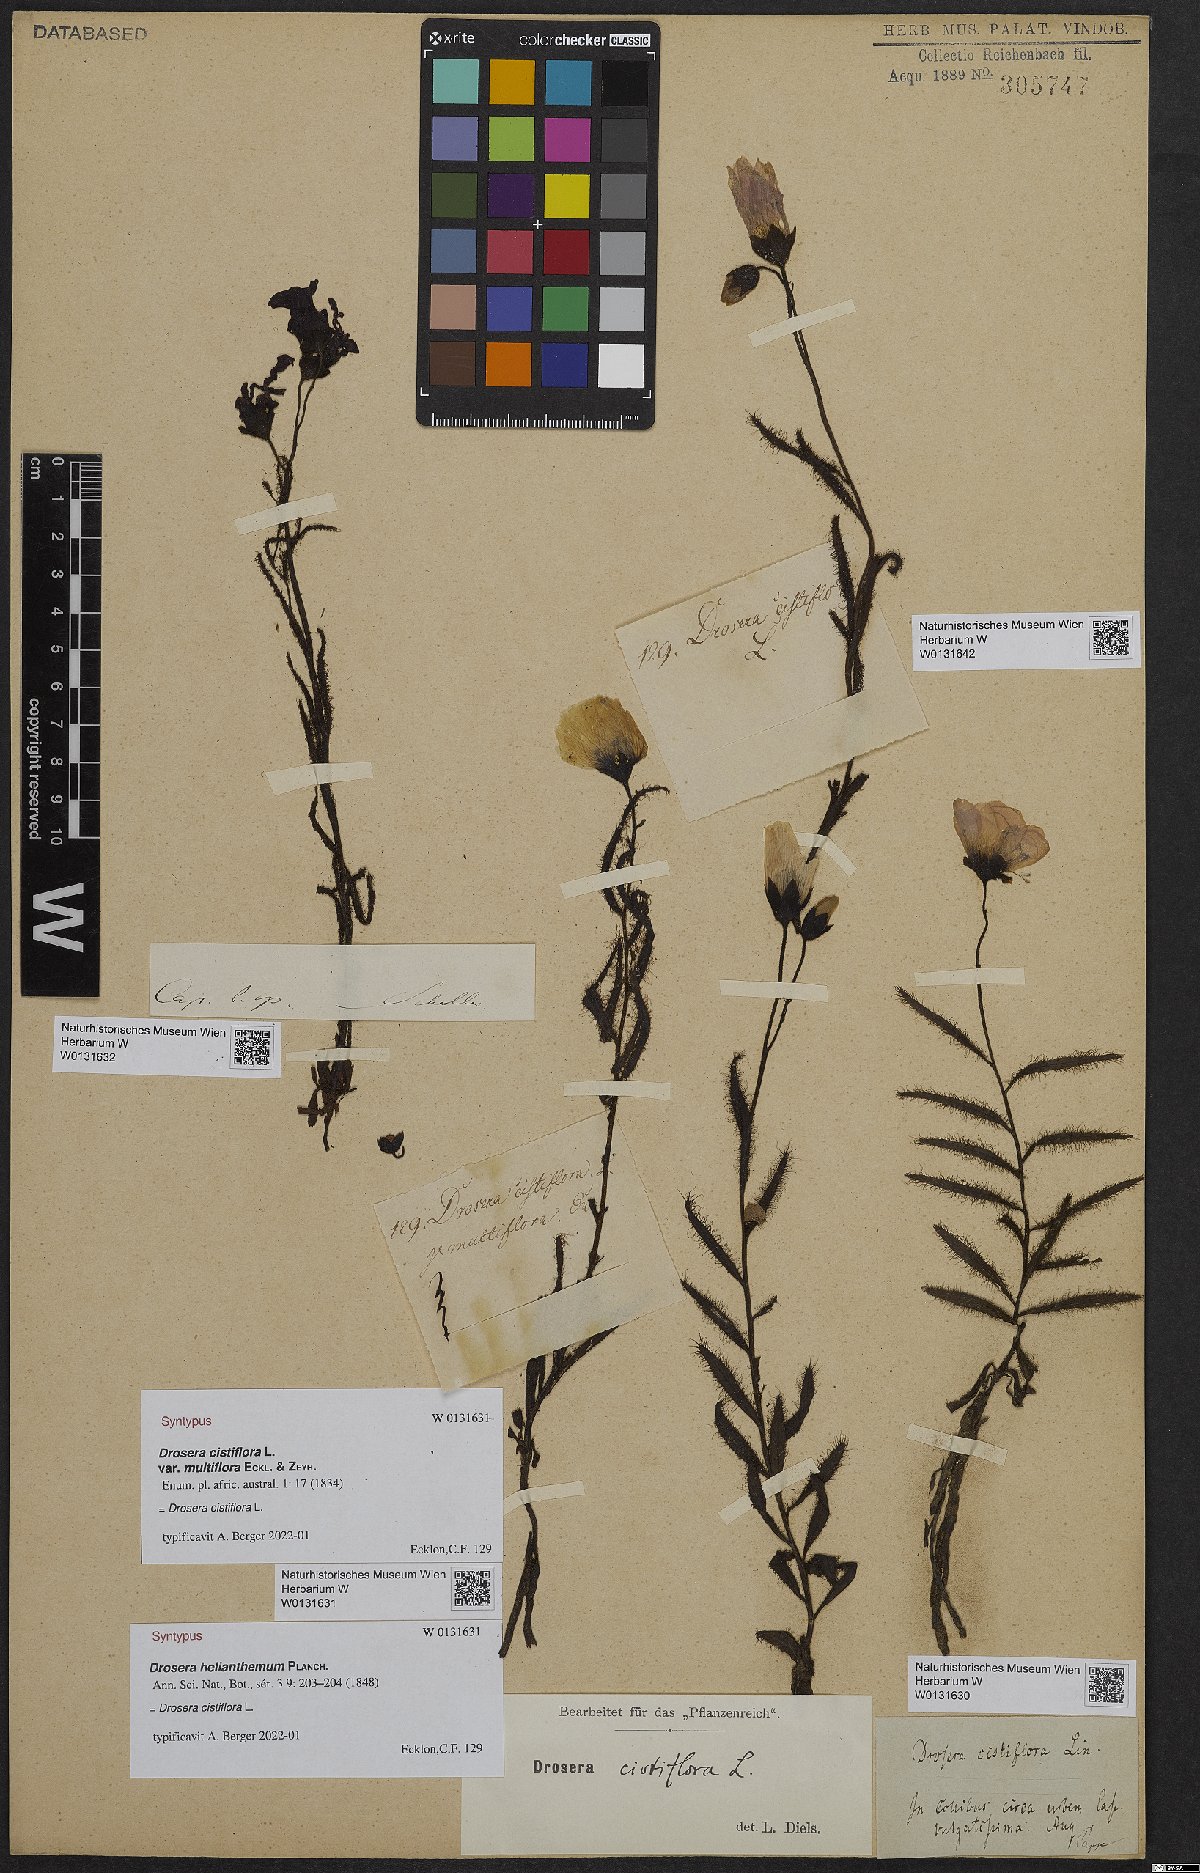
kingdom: Plantae
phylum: Tracheophyta
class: Magnoliopsida
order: Caryophyllales
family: Droseraceae
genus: Drosera
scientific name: Drosera cistiflora
